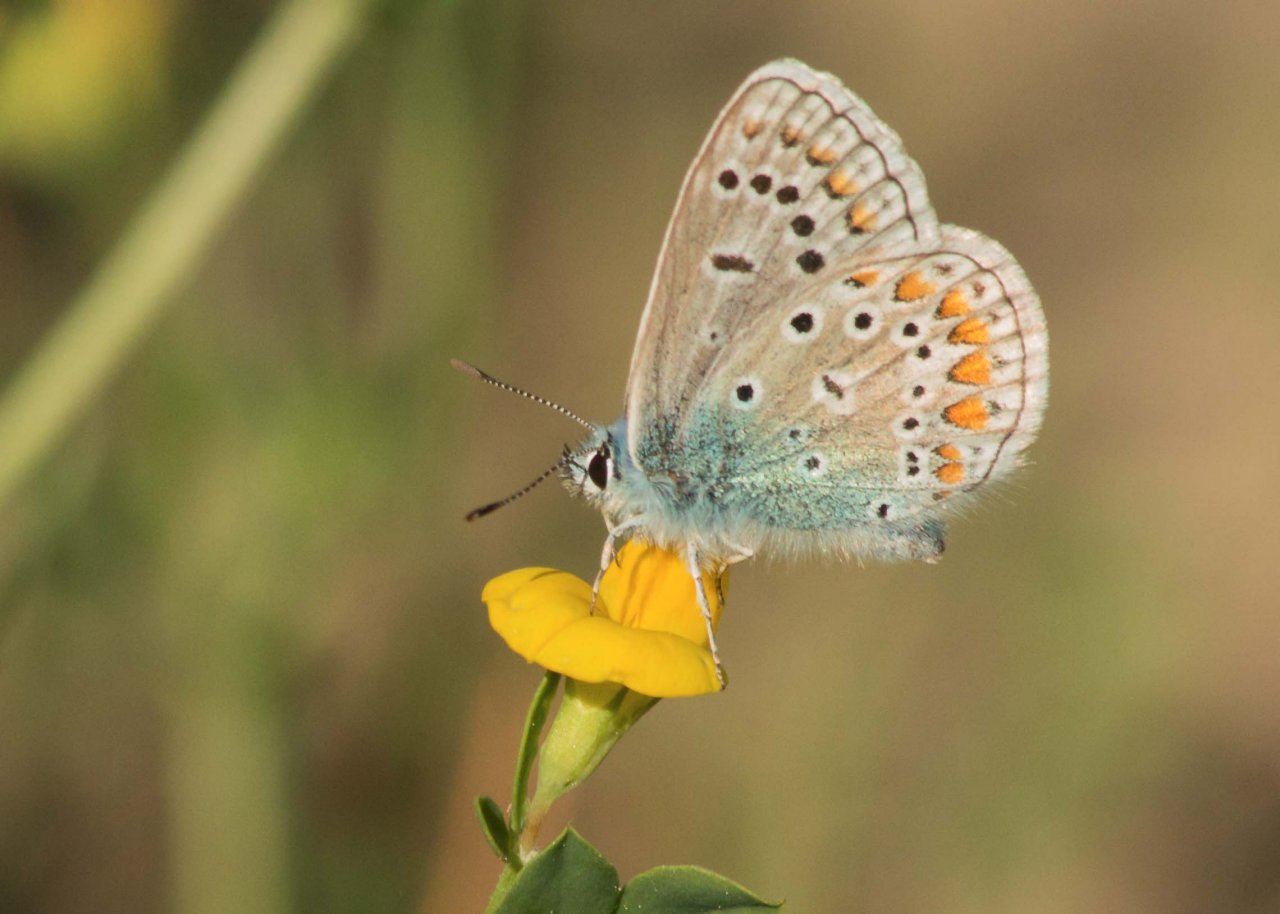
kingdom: Animalia
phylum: Arthropoda
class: Insecta
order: Lepidoptera
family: Lycaenidae
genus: Polyommatus
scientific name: Polyommatus icarus
